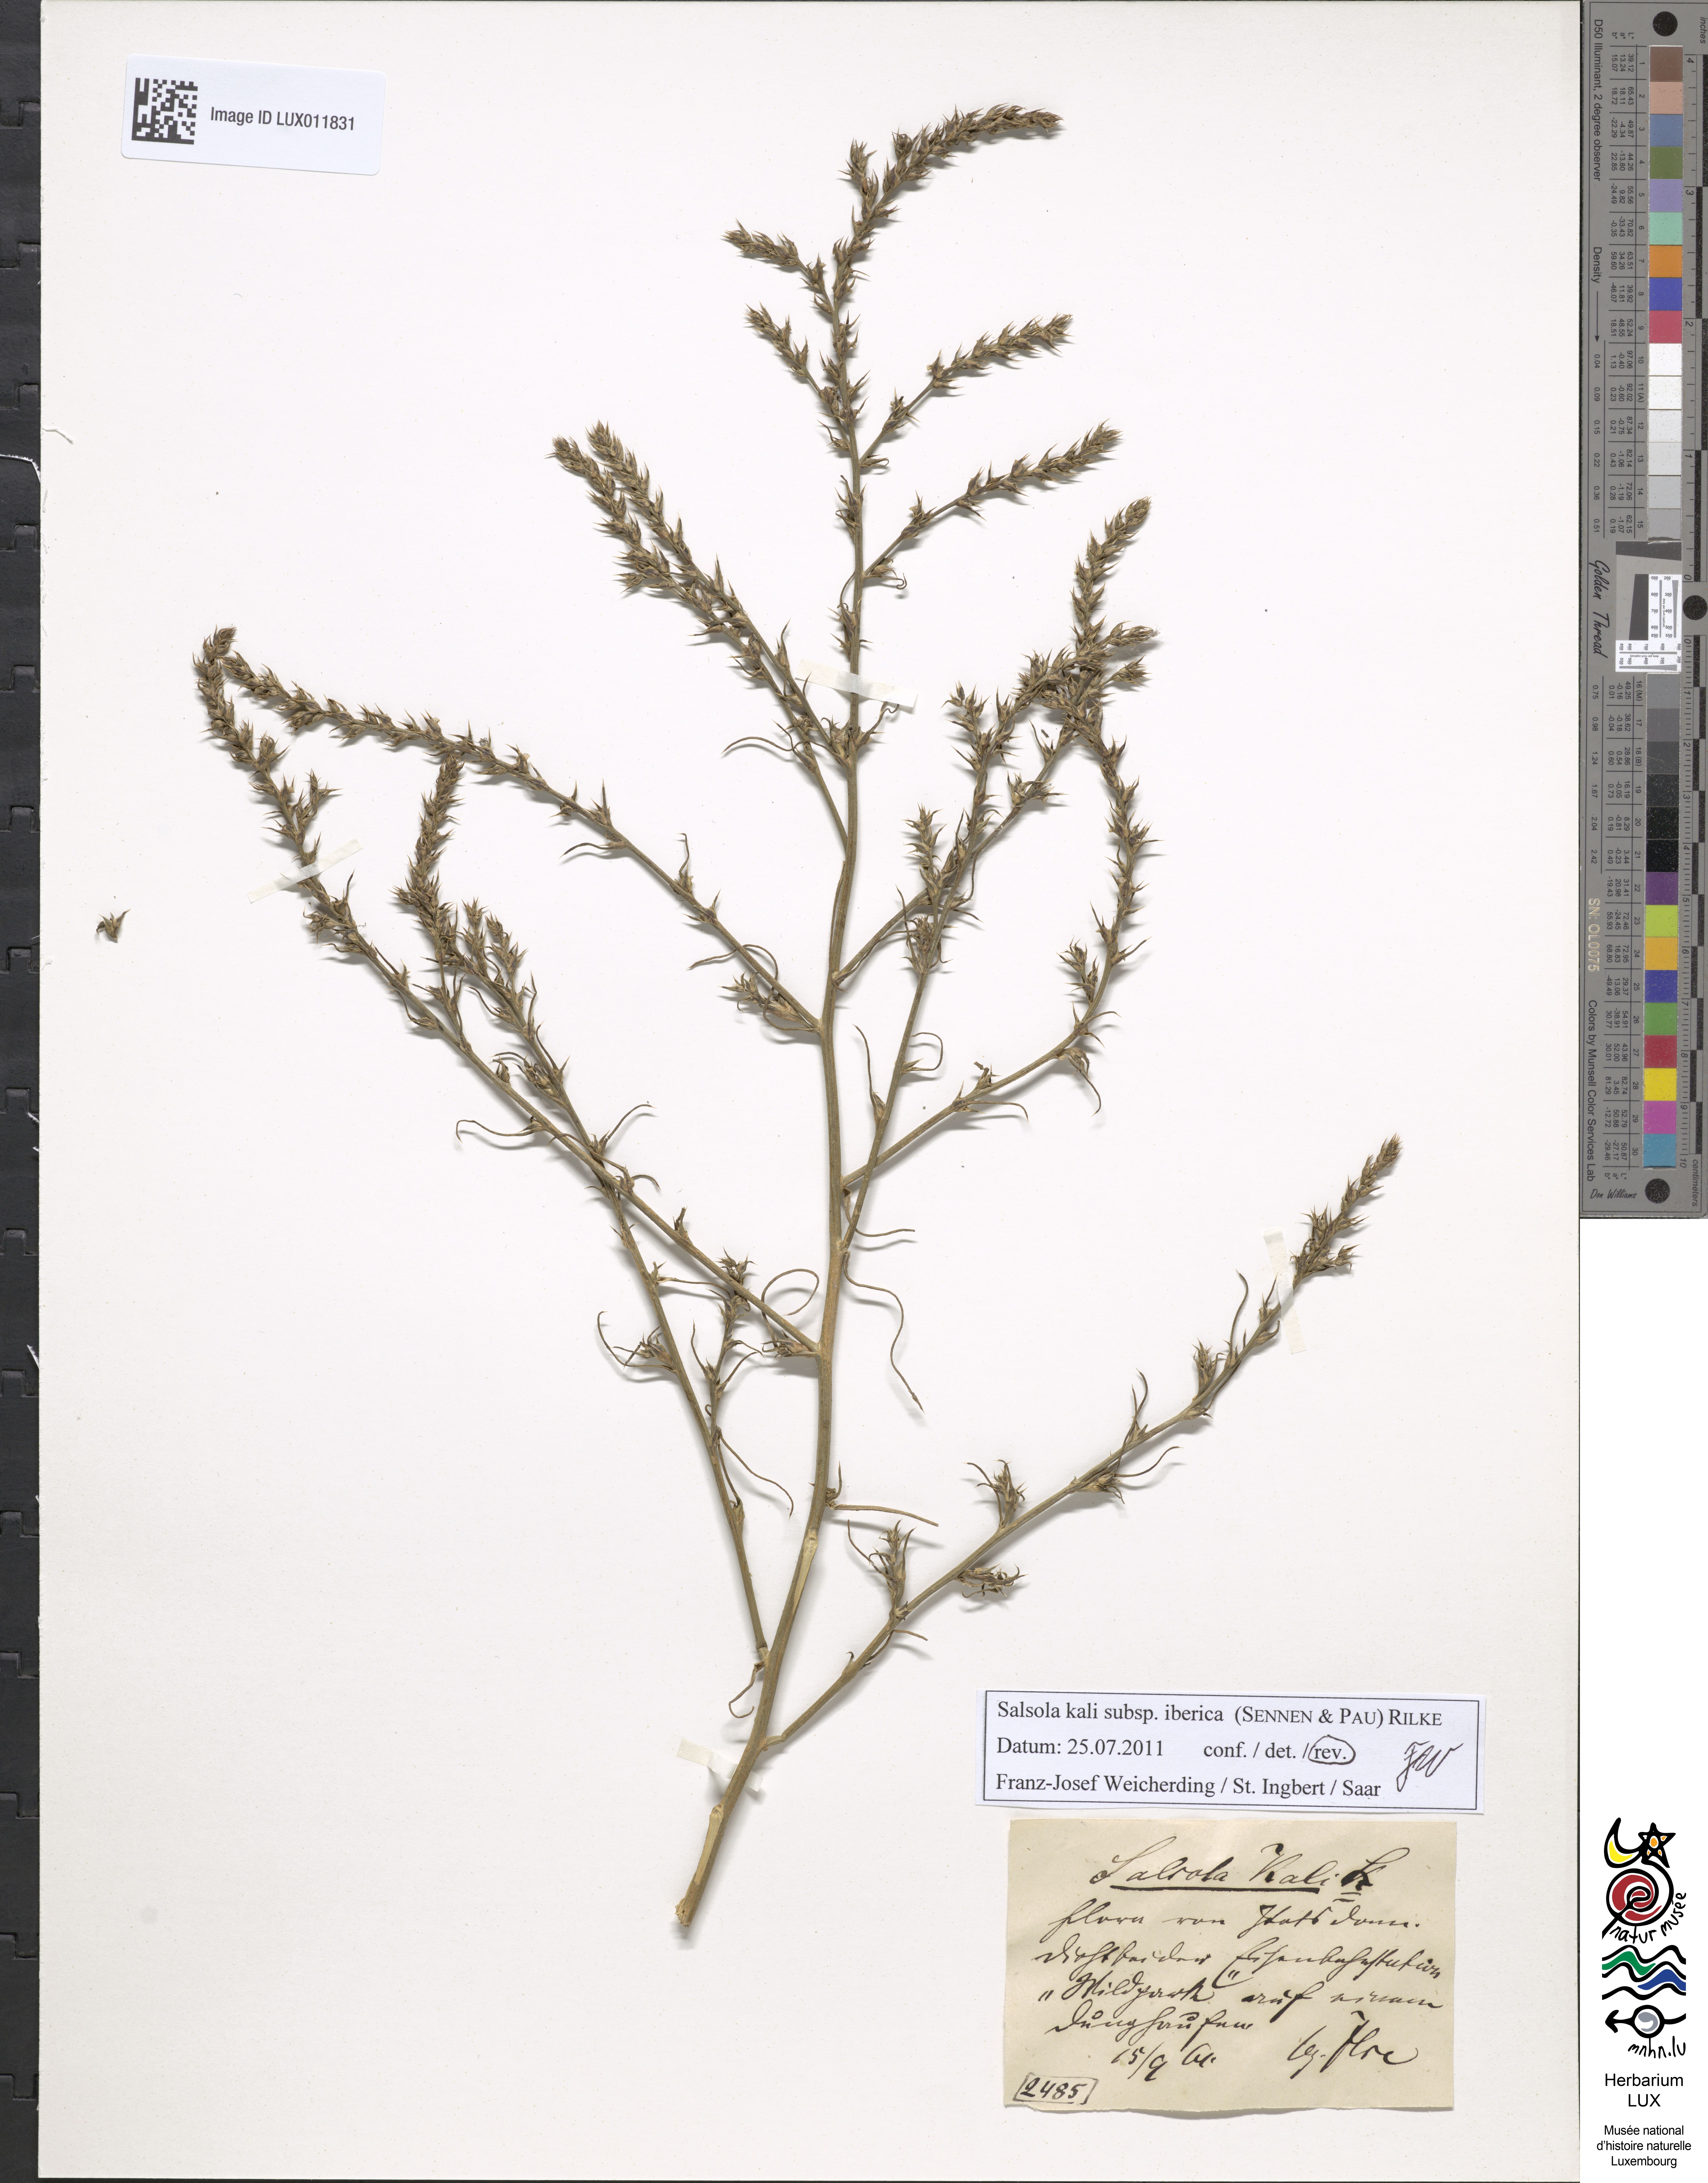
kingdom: Plantae
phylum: Tracheophyta
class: Magnoliopsida
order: Caryophyllales
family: Amaranthaceae
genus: Salsola
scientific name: Salsola tragus
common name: Prickly russian thistle
